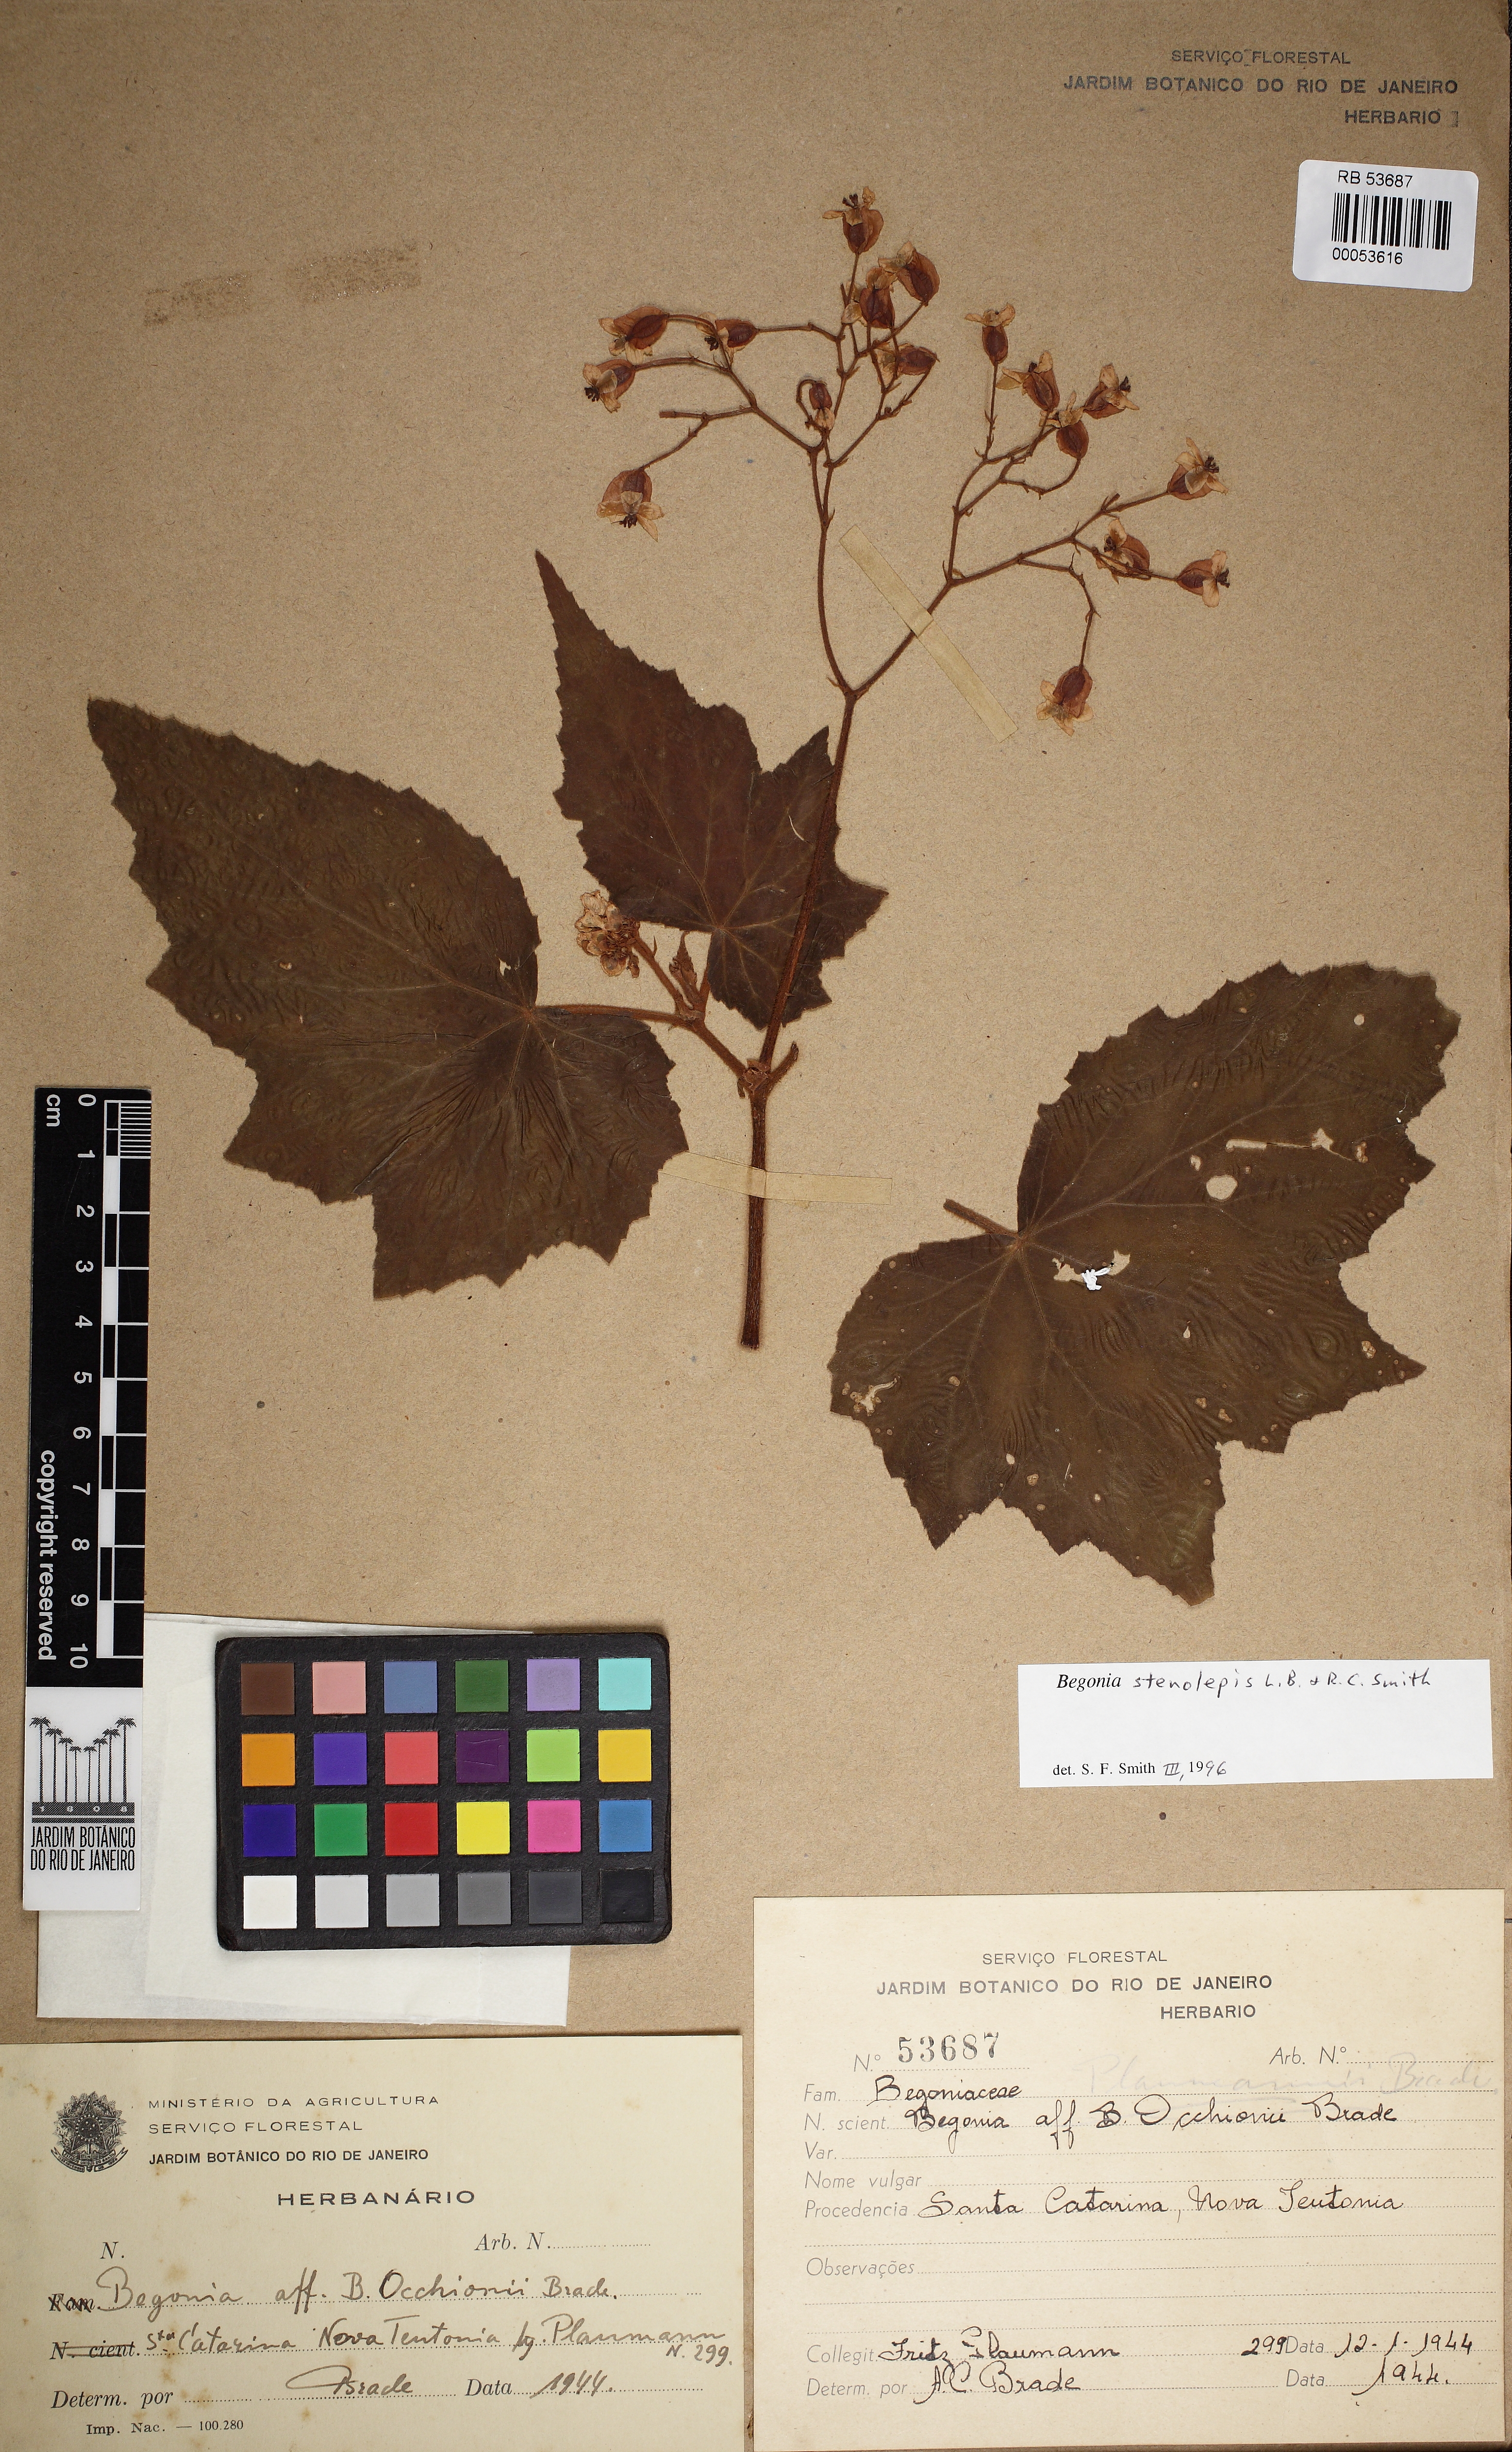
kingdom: Plantae
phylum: Tracheophyta
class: Magnoliopsida
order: Cucurbitales
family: Begoniaceae
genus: Begonia
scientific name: Begonia stenolepis
